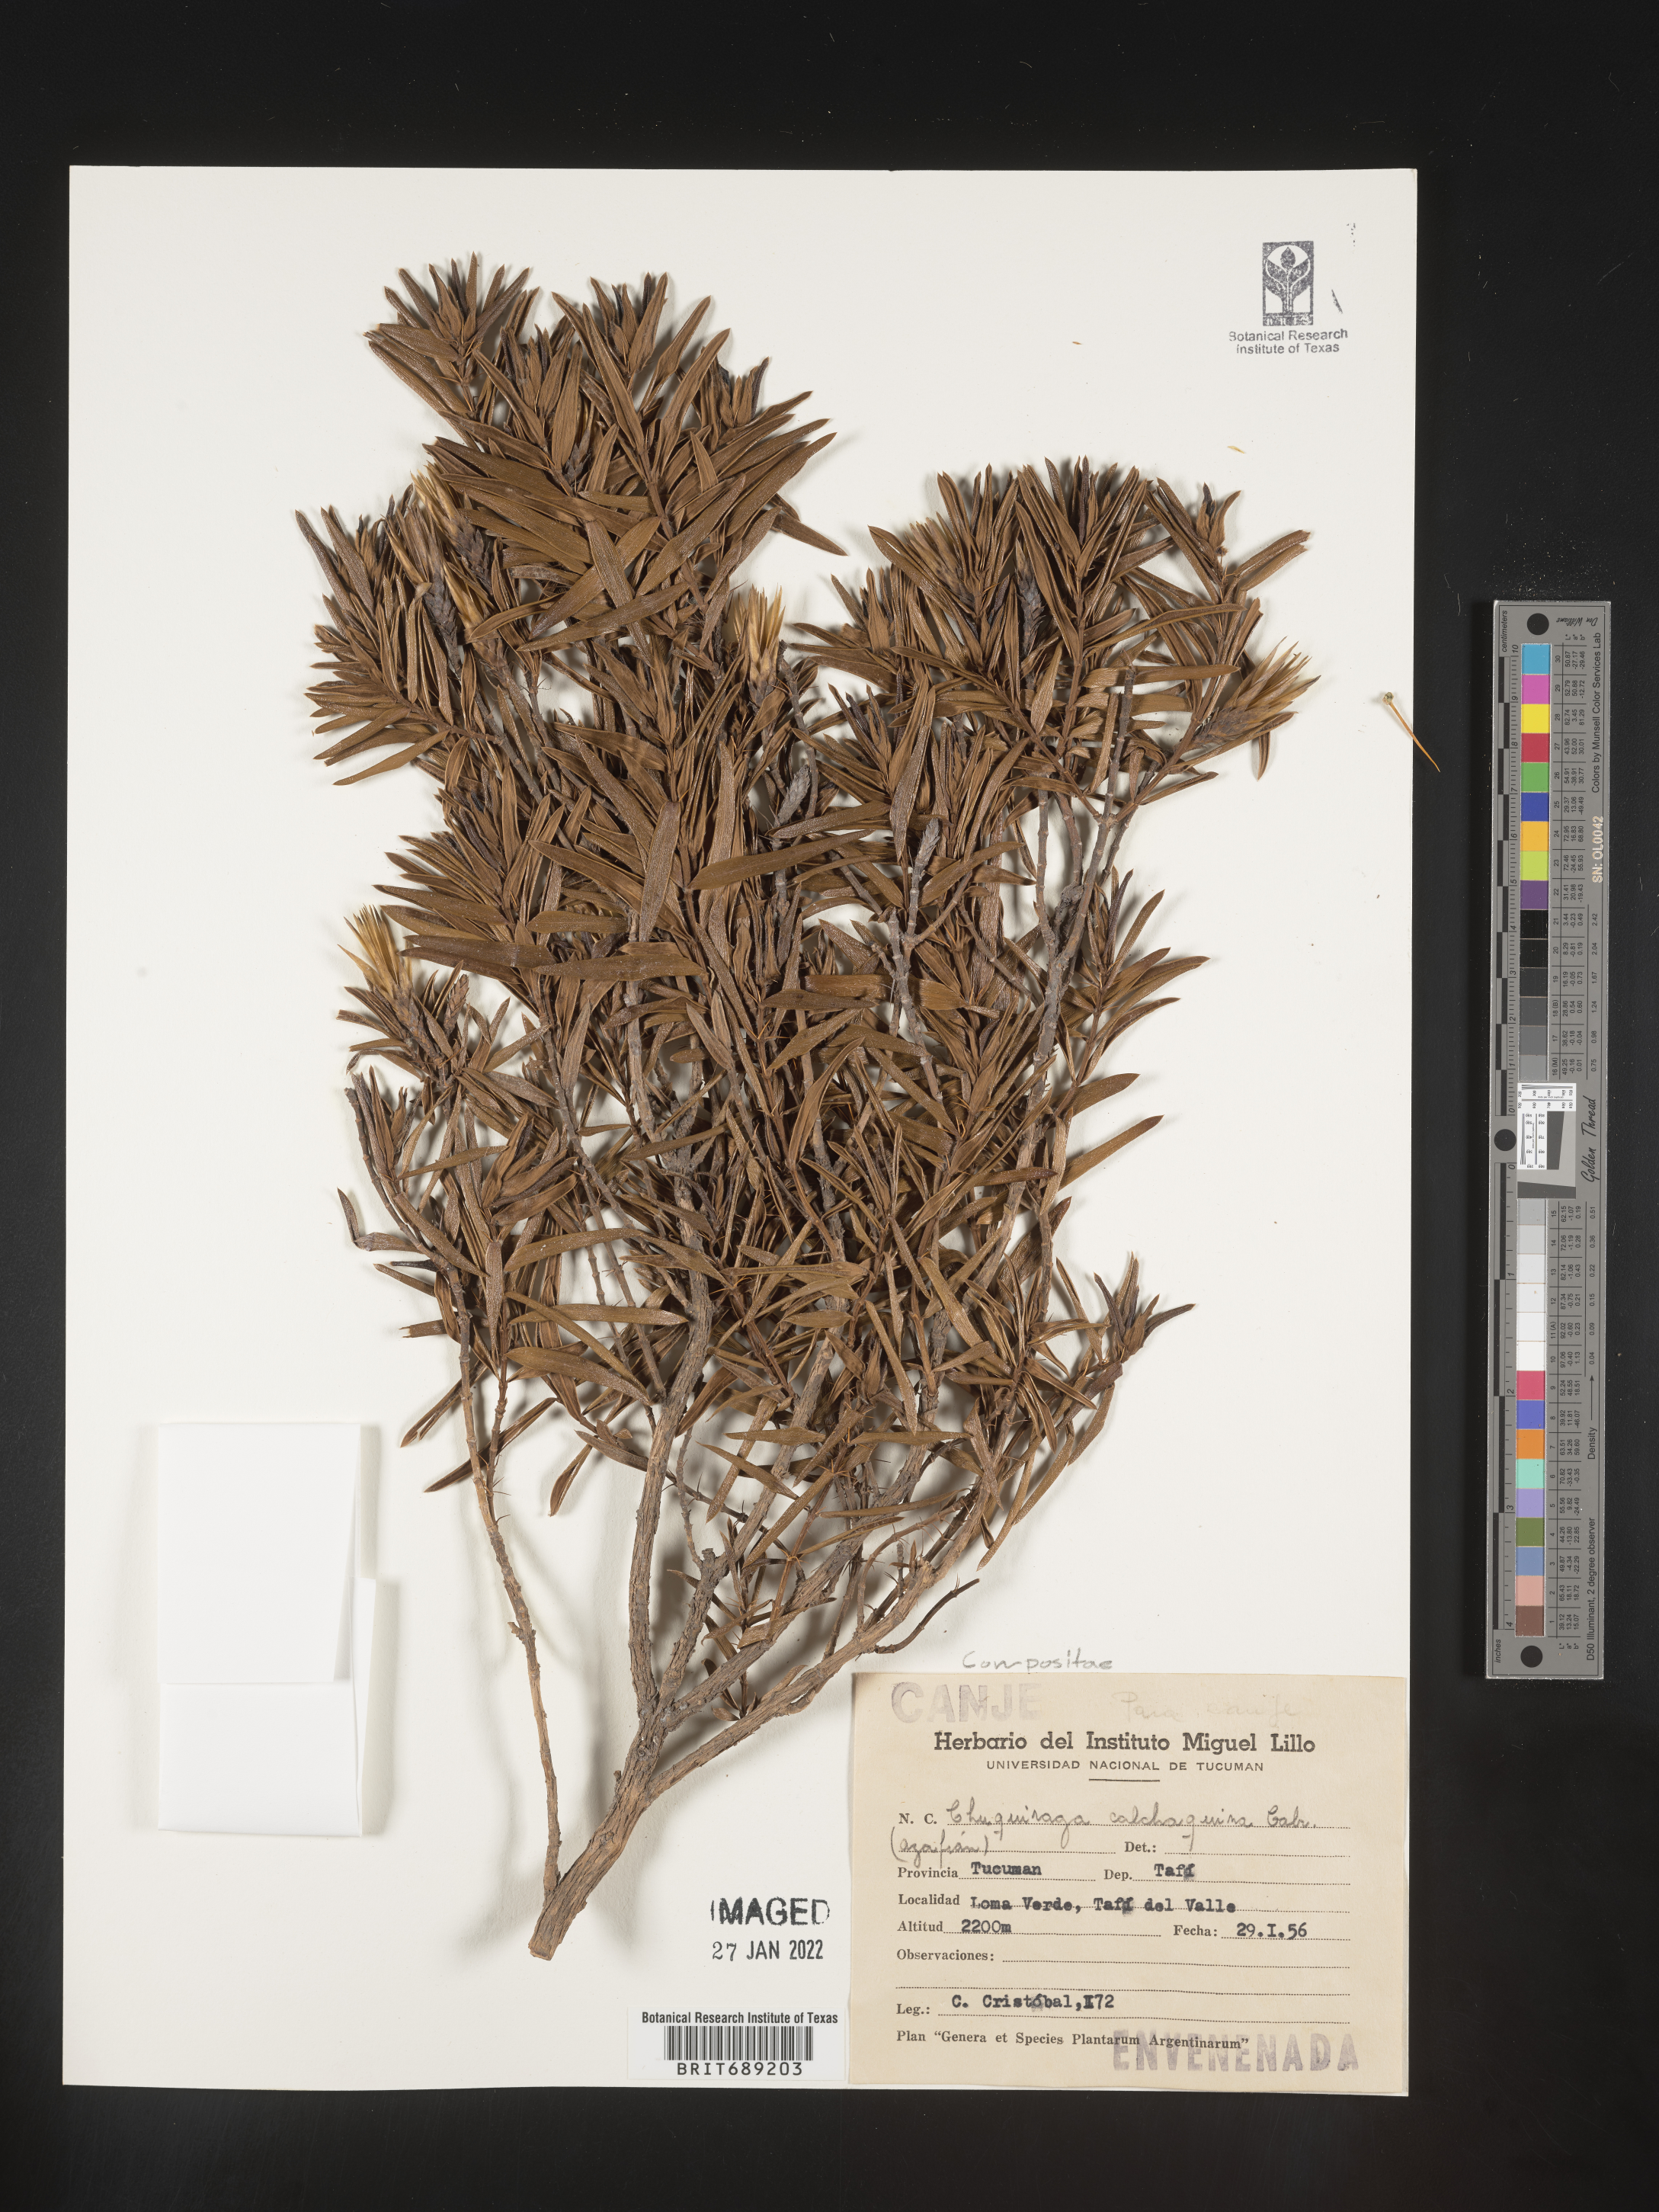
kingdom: Plantae
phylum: Tracheophyta
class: Magnoliopsida
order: Asterales
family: Asteraceae
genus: Chuquiraga
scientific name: Chuquiraga
